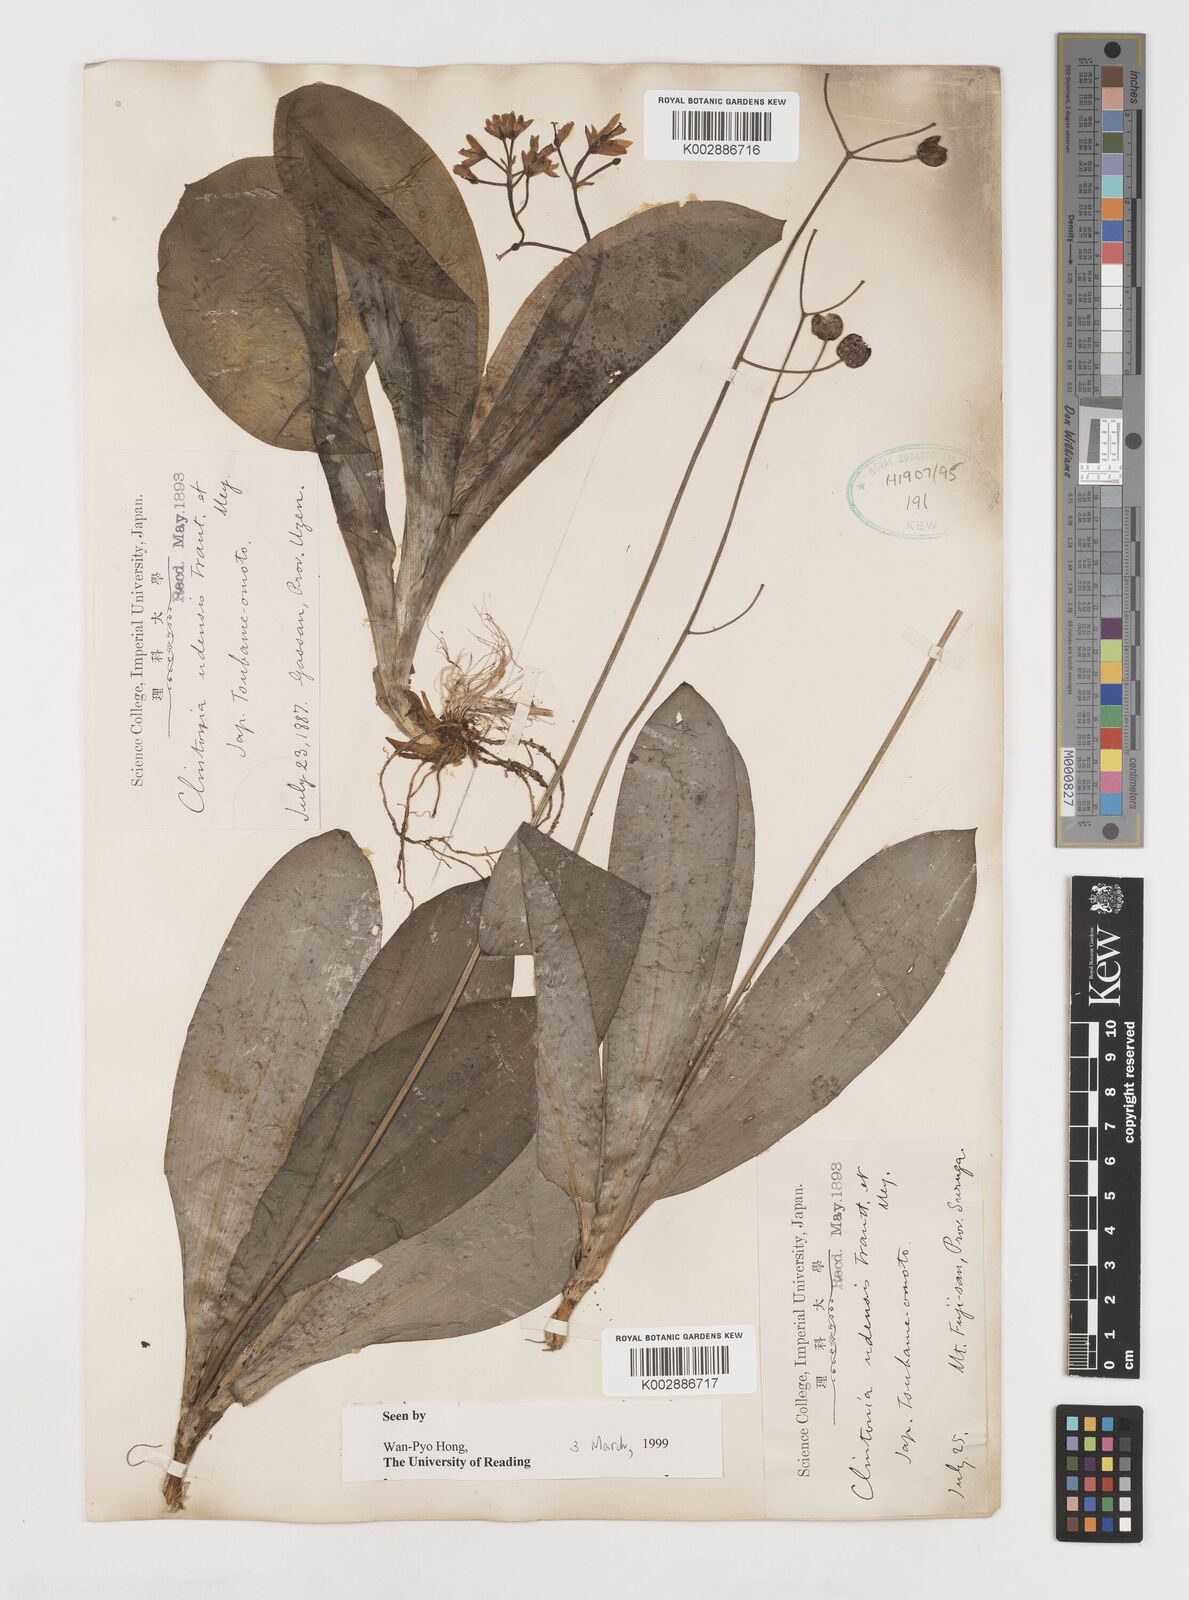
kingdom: Plantae
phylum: Tracheophyta
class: Liliopsida
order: Liliales
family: Liliaceae
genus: Clintonia
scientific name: Clintonia udensis
